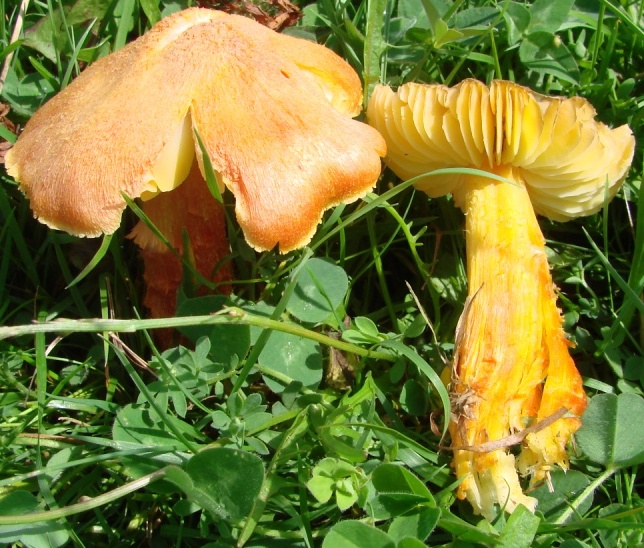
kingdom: Fungi
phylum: Basidiomycota
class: Agaricomycetes
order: Agaricales
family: Hygrophoraceae
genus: Hygrocybe
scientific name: Hygrocybe intermedia
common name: trævlet vokshat
